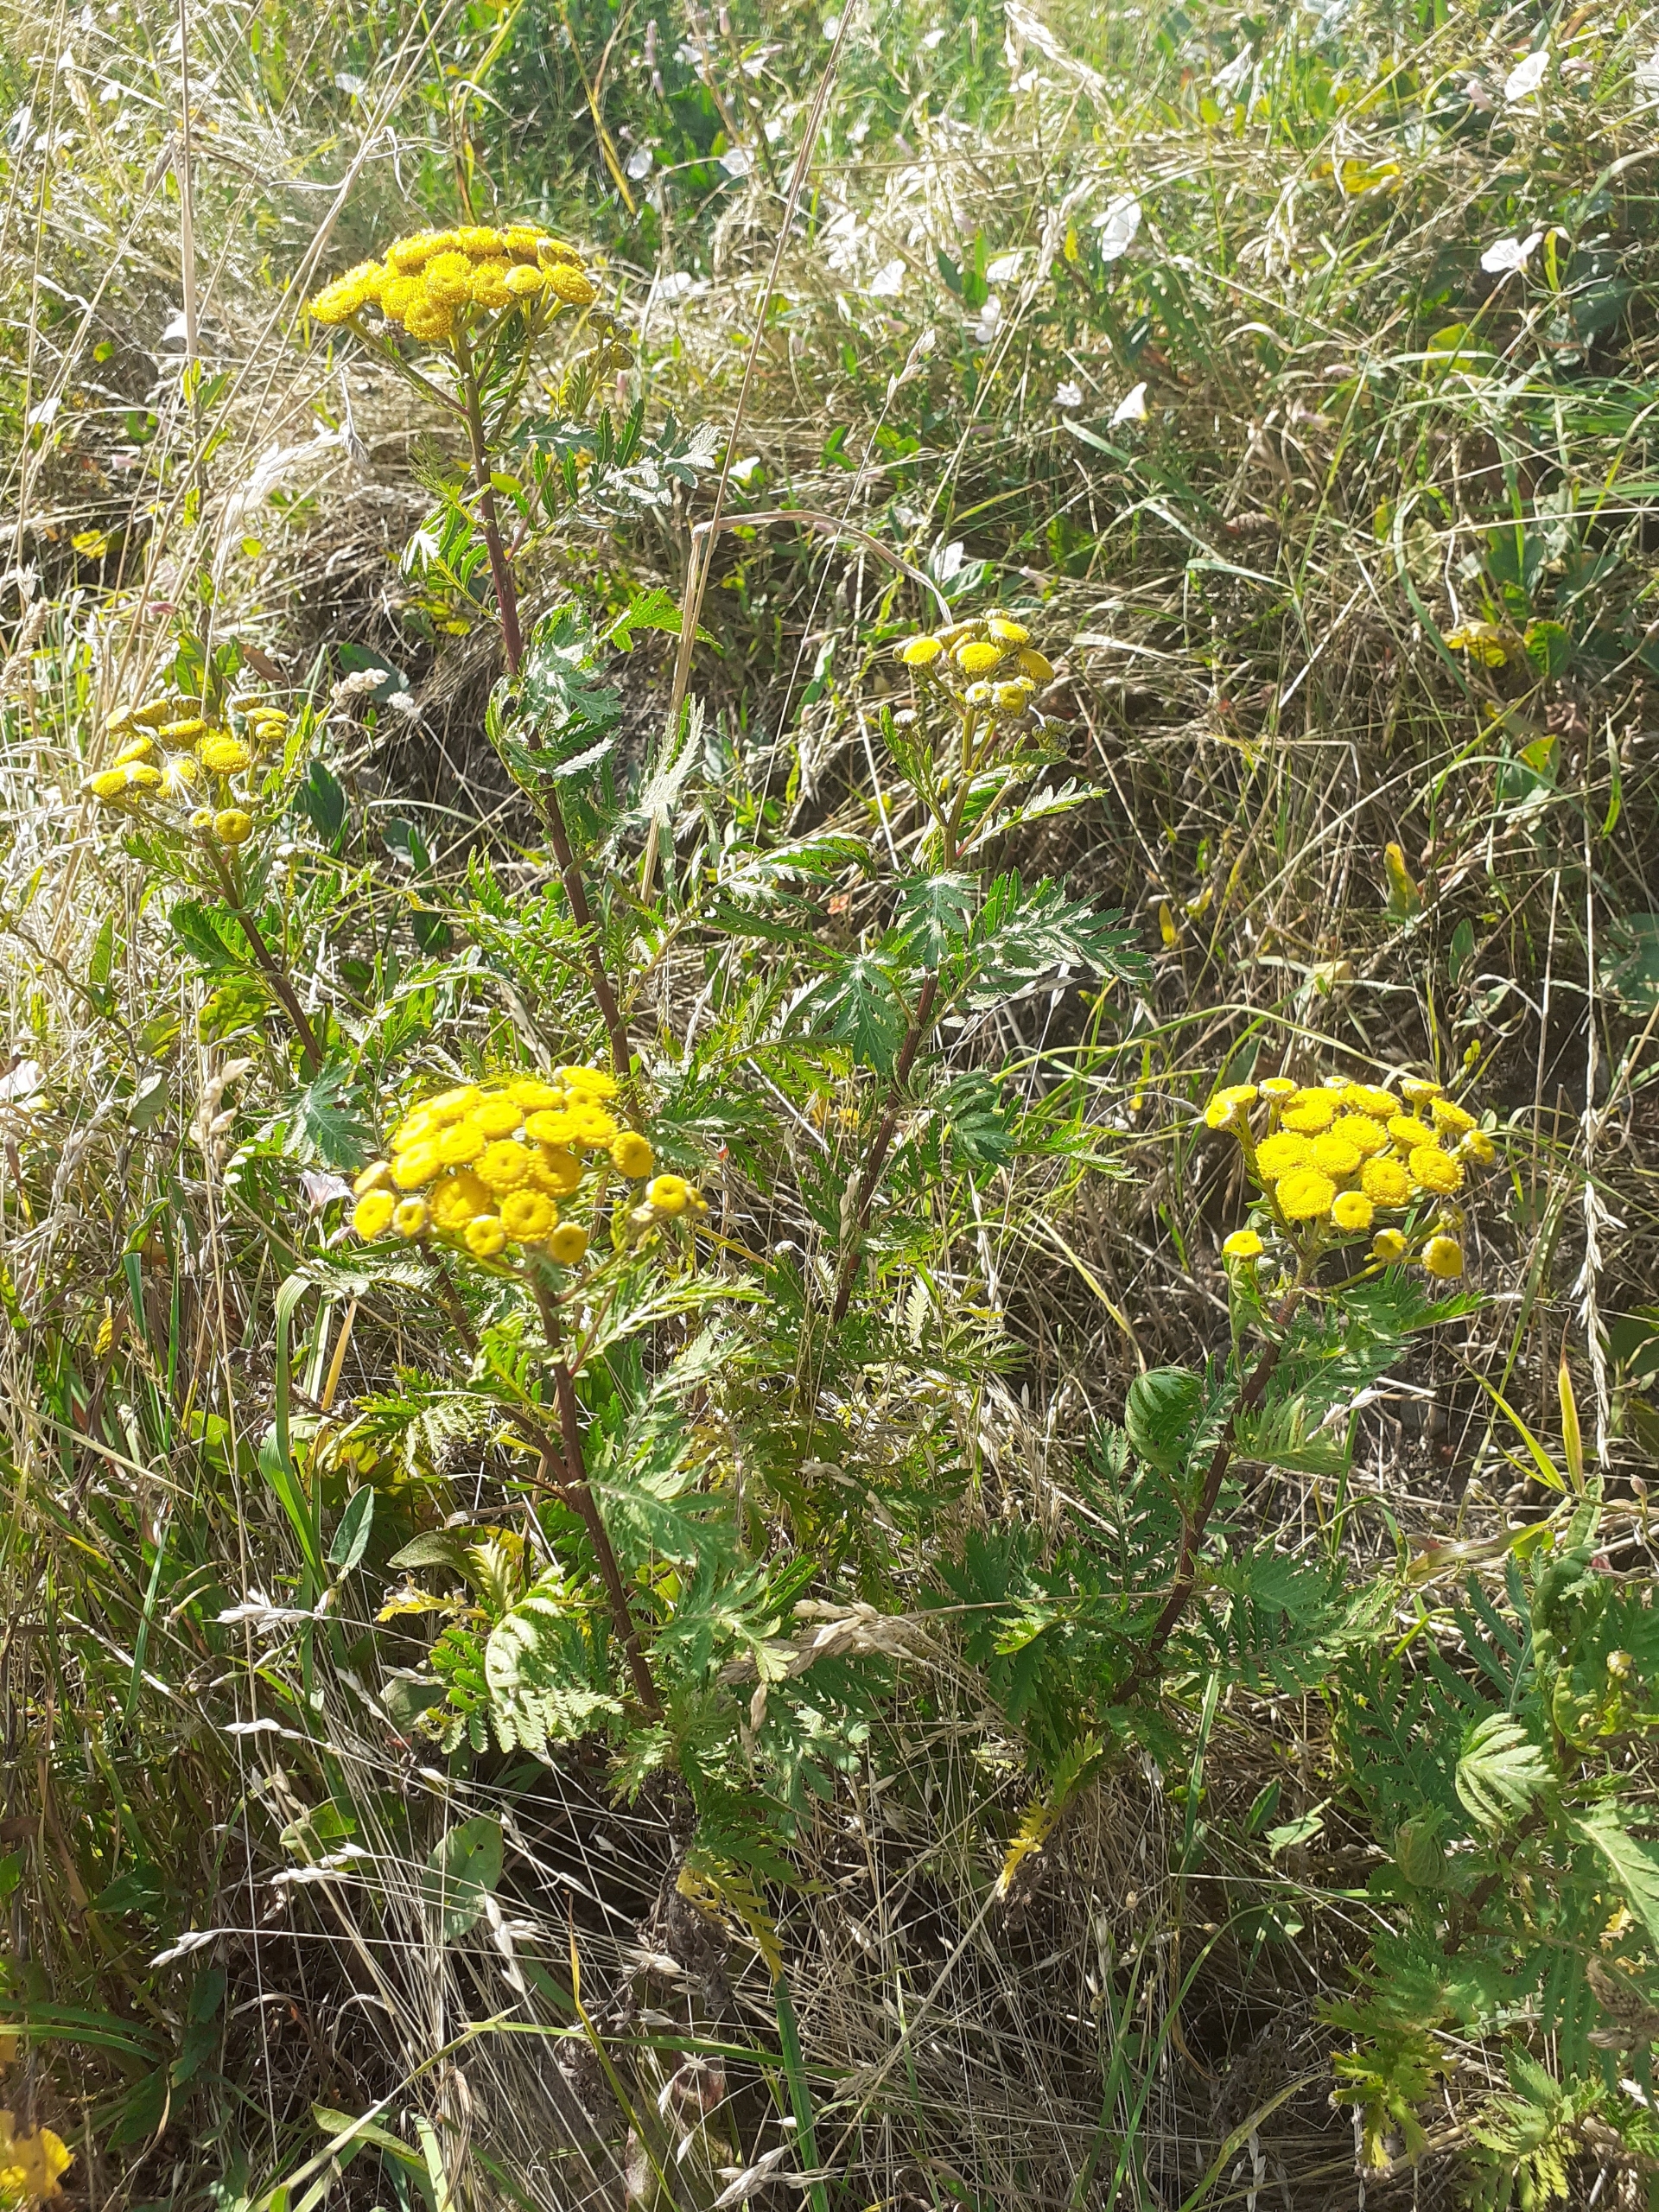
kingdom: Plantae
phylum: Tracheophyta
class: Magnoliopsida
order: Asterales
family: Asteraceae
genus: Tanacetum
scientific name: Tanacetum vulgare
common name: Rejnfan
